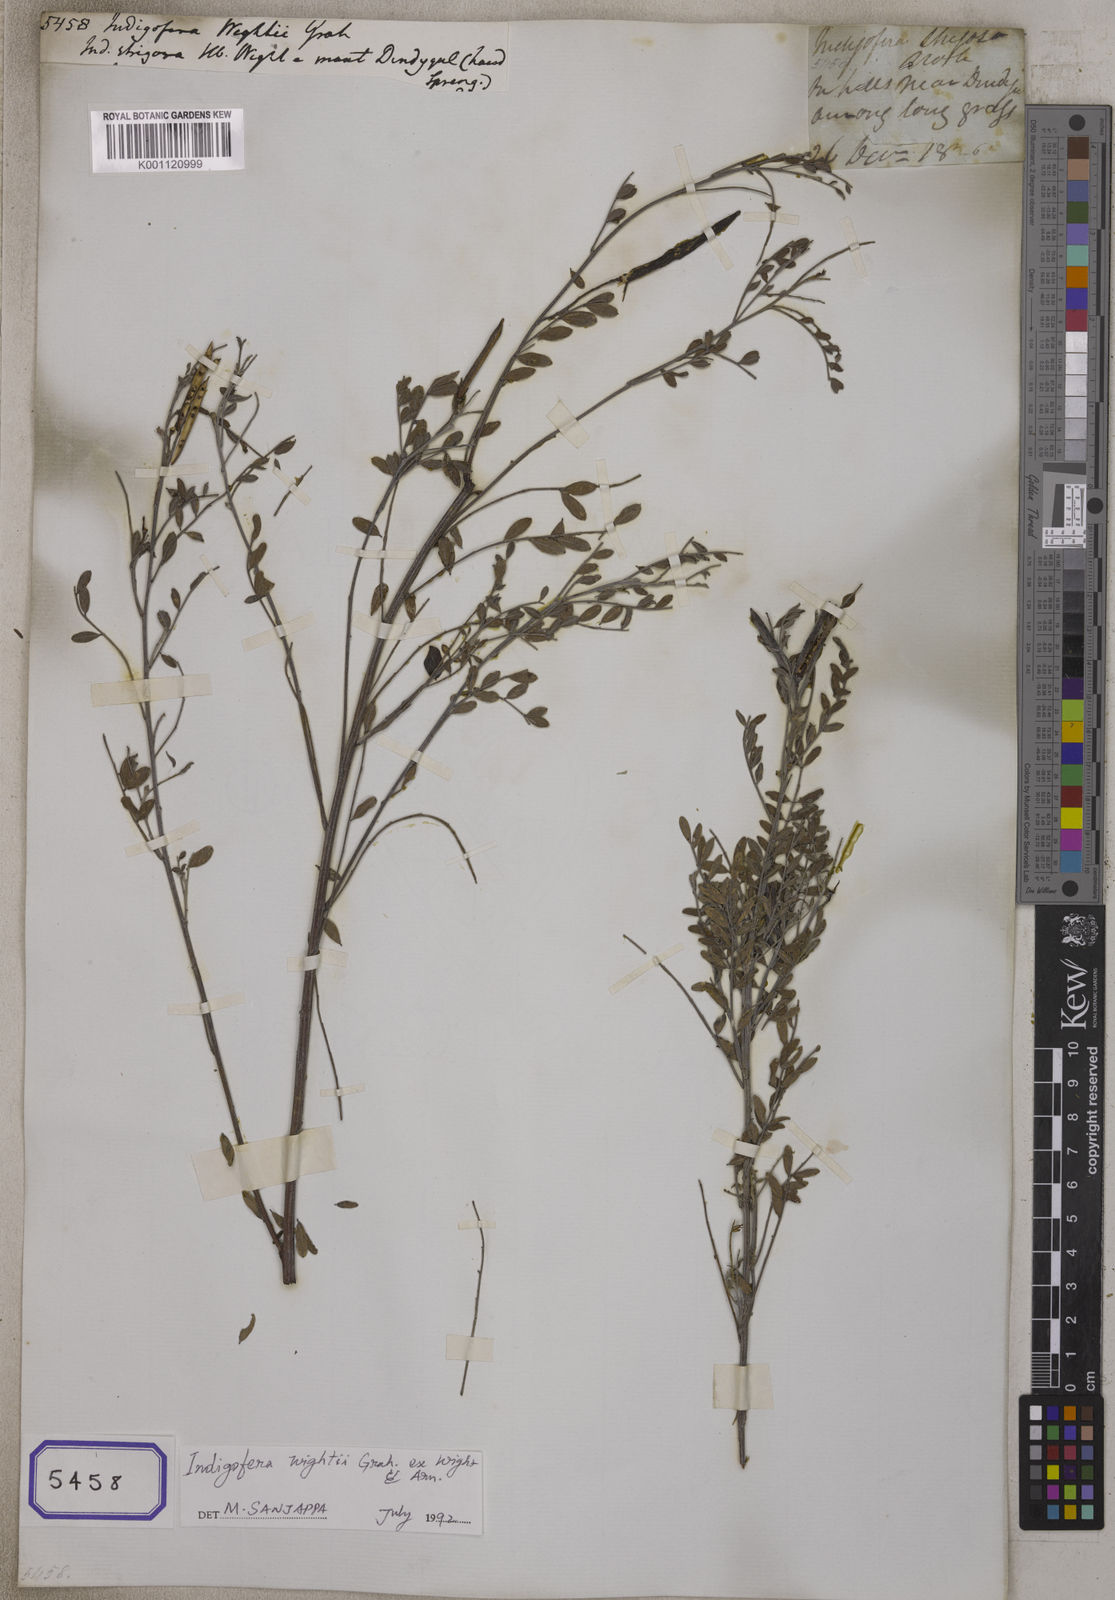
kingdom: Plantae
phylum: Tracheophyta
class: Magnoliopsida
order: Fabales
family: Fabaceae
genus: Indigofera
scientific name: Indigofera
